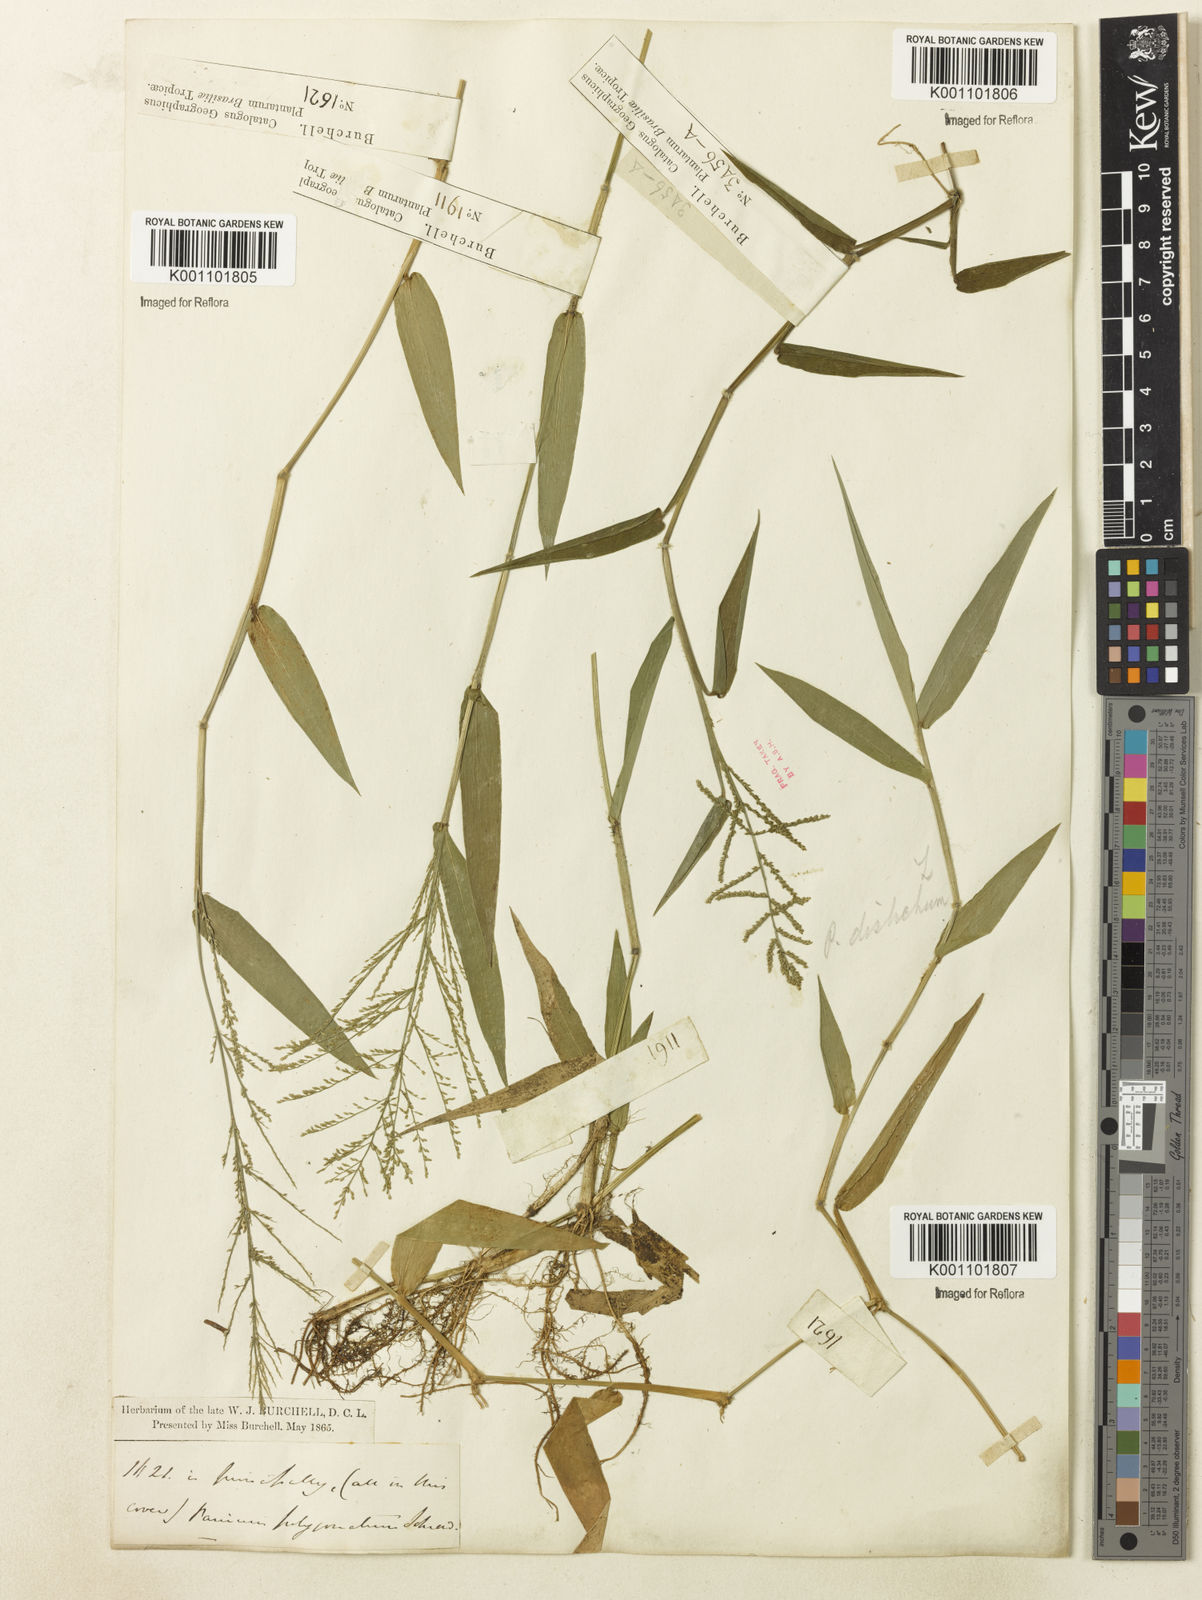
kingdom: Plantae
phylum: Tracheophyta
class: Liliopsida
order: Poales
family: Poaceae
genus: Rugoloa
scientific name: Rugoloa polygonata
